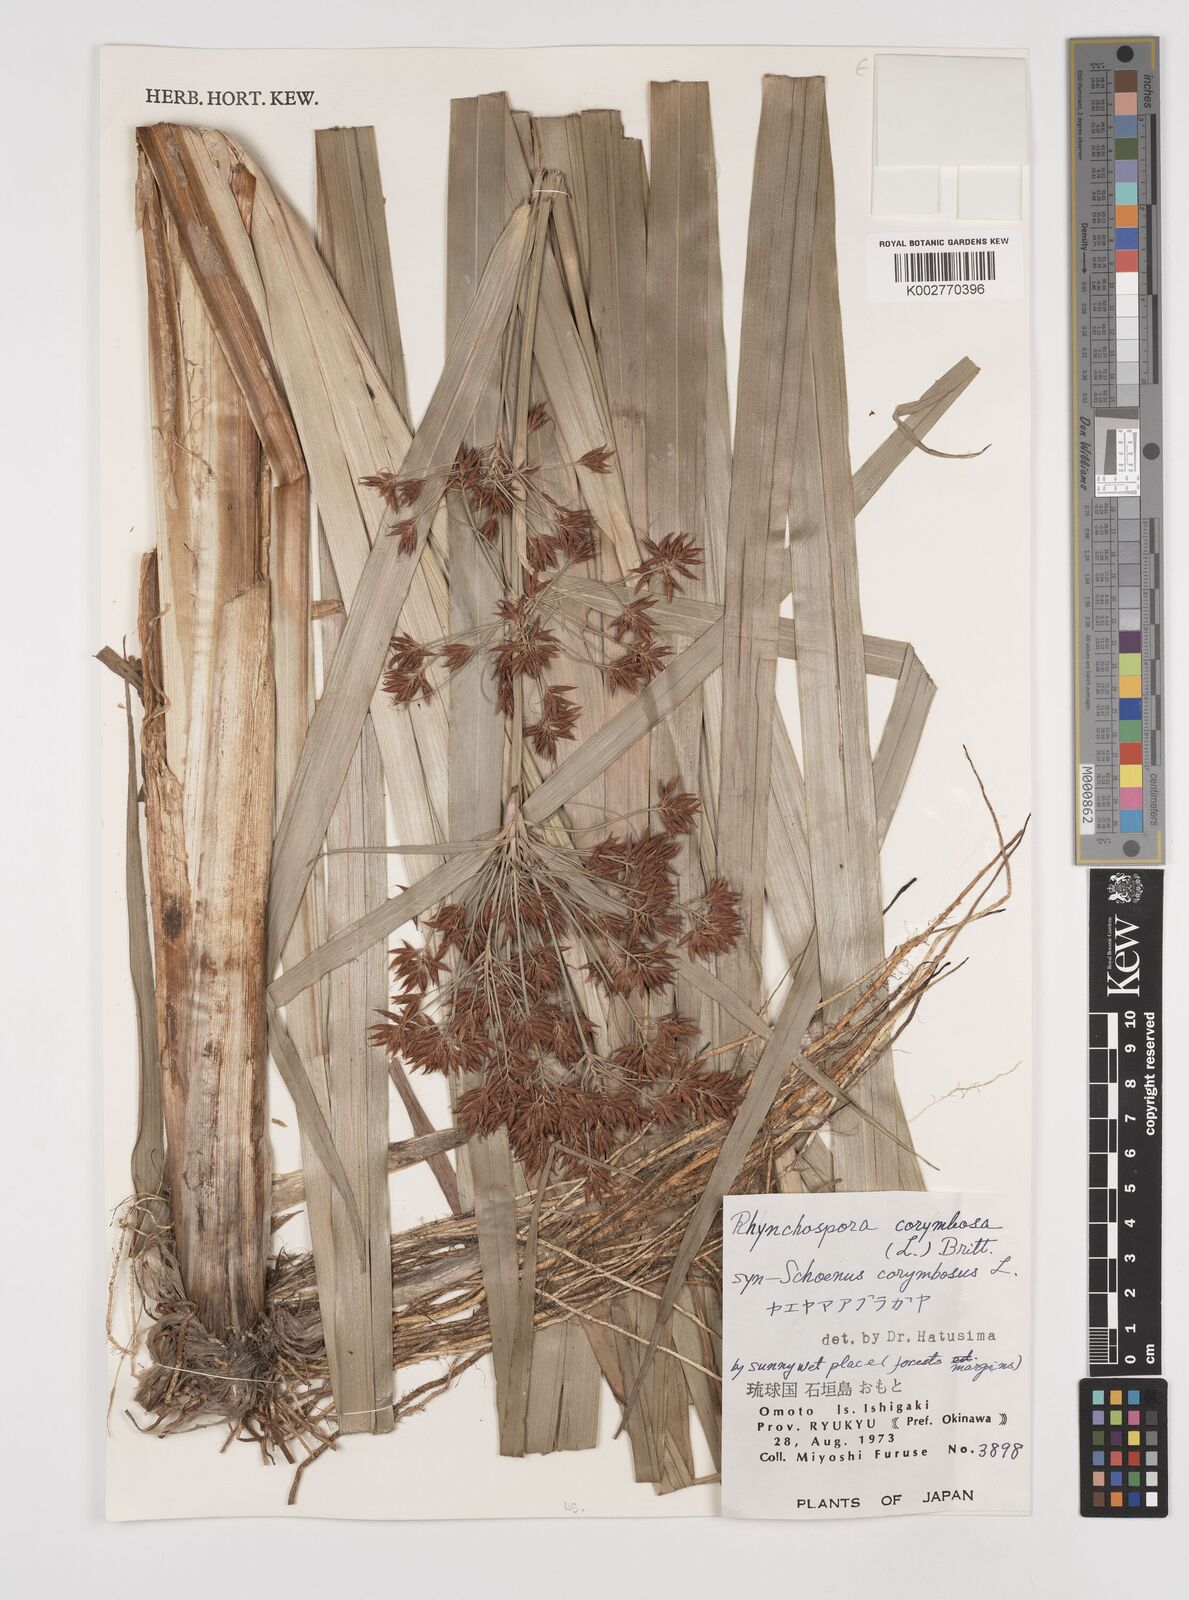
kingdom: Plantae
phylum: Tracheophyta
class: Liliopsida
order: Poales
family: Cyperaceae
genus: Rhynchospora
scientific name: Rhynchospora corymbosa
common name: Golden beak sedge
